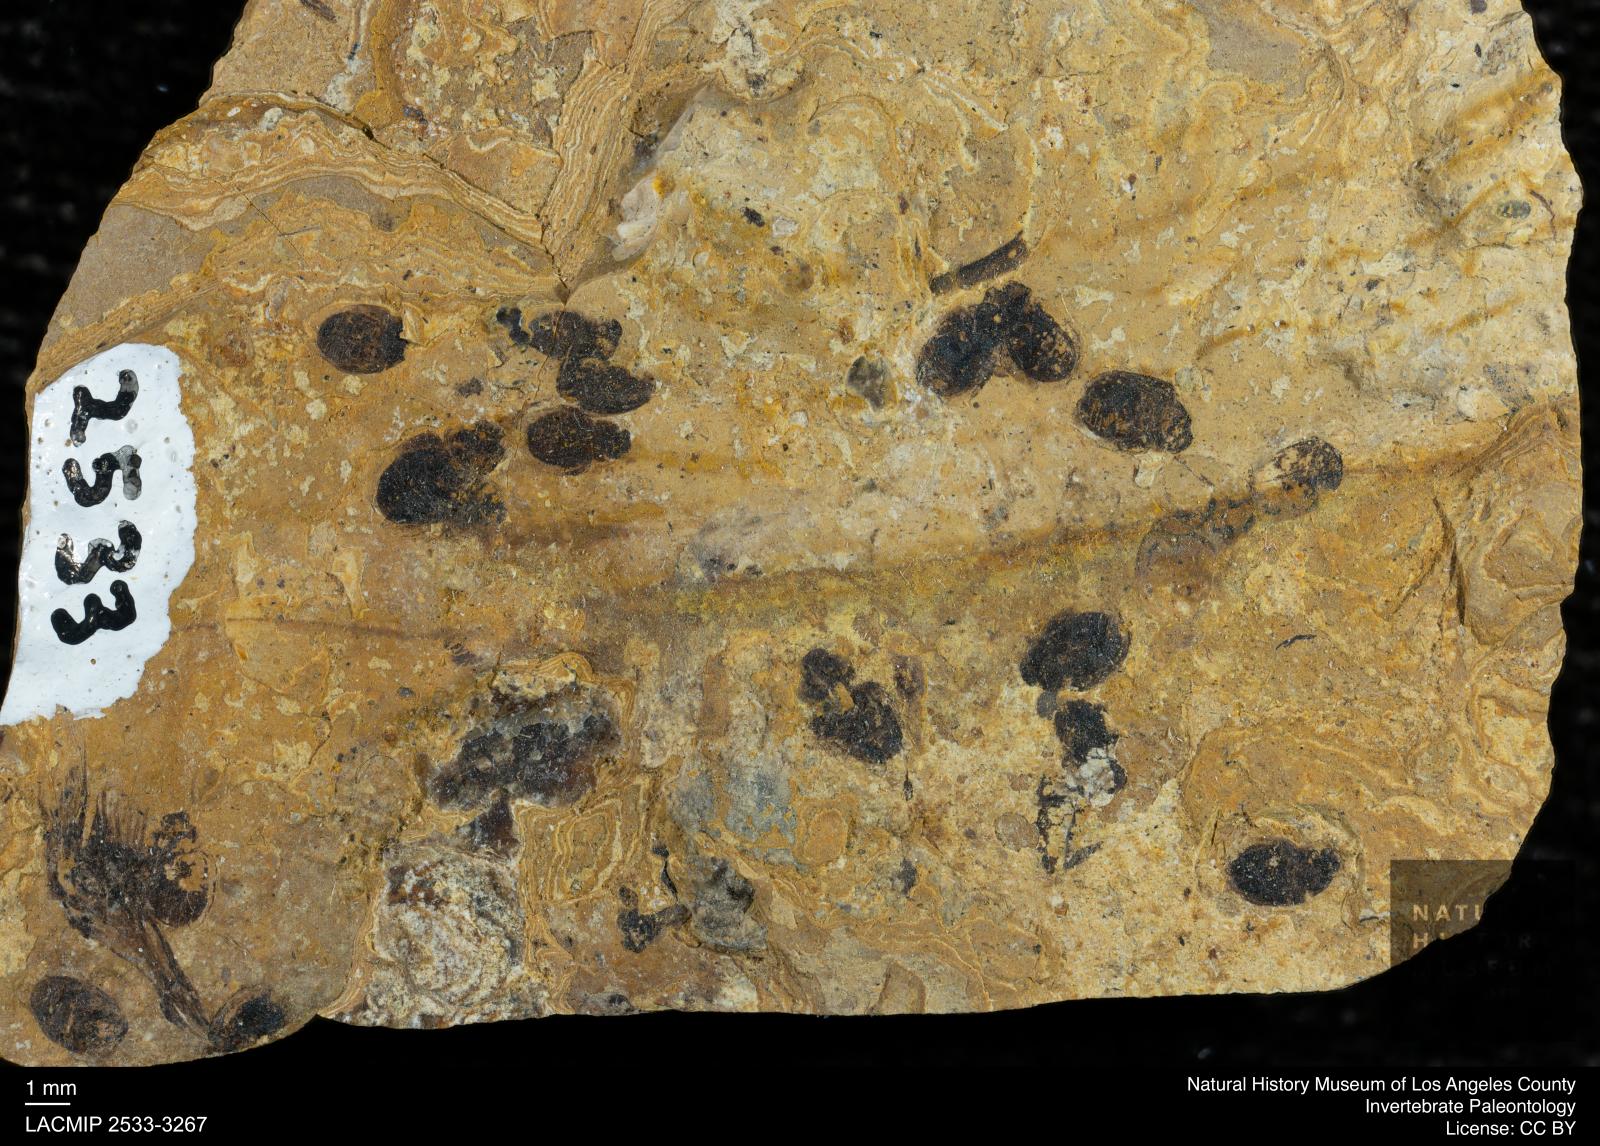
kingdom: Animalia
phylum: Arthropoda
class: Insecta
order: Coleoptera
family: Hydrophilidae
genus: Paracymus
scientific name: Paracymus excitatus
